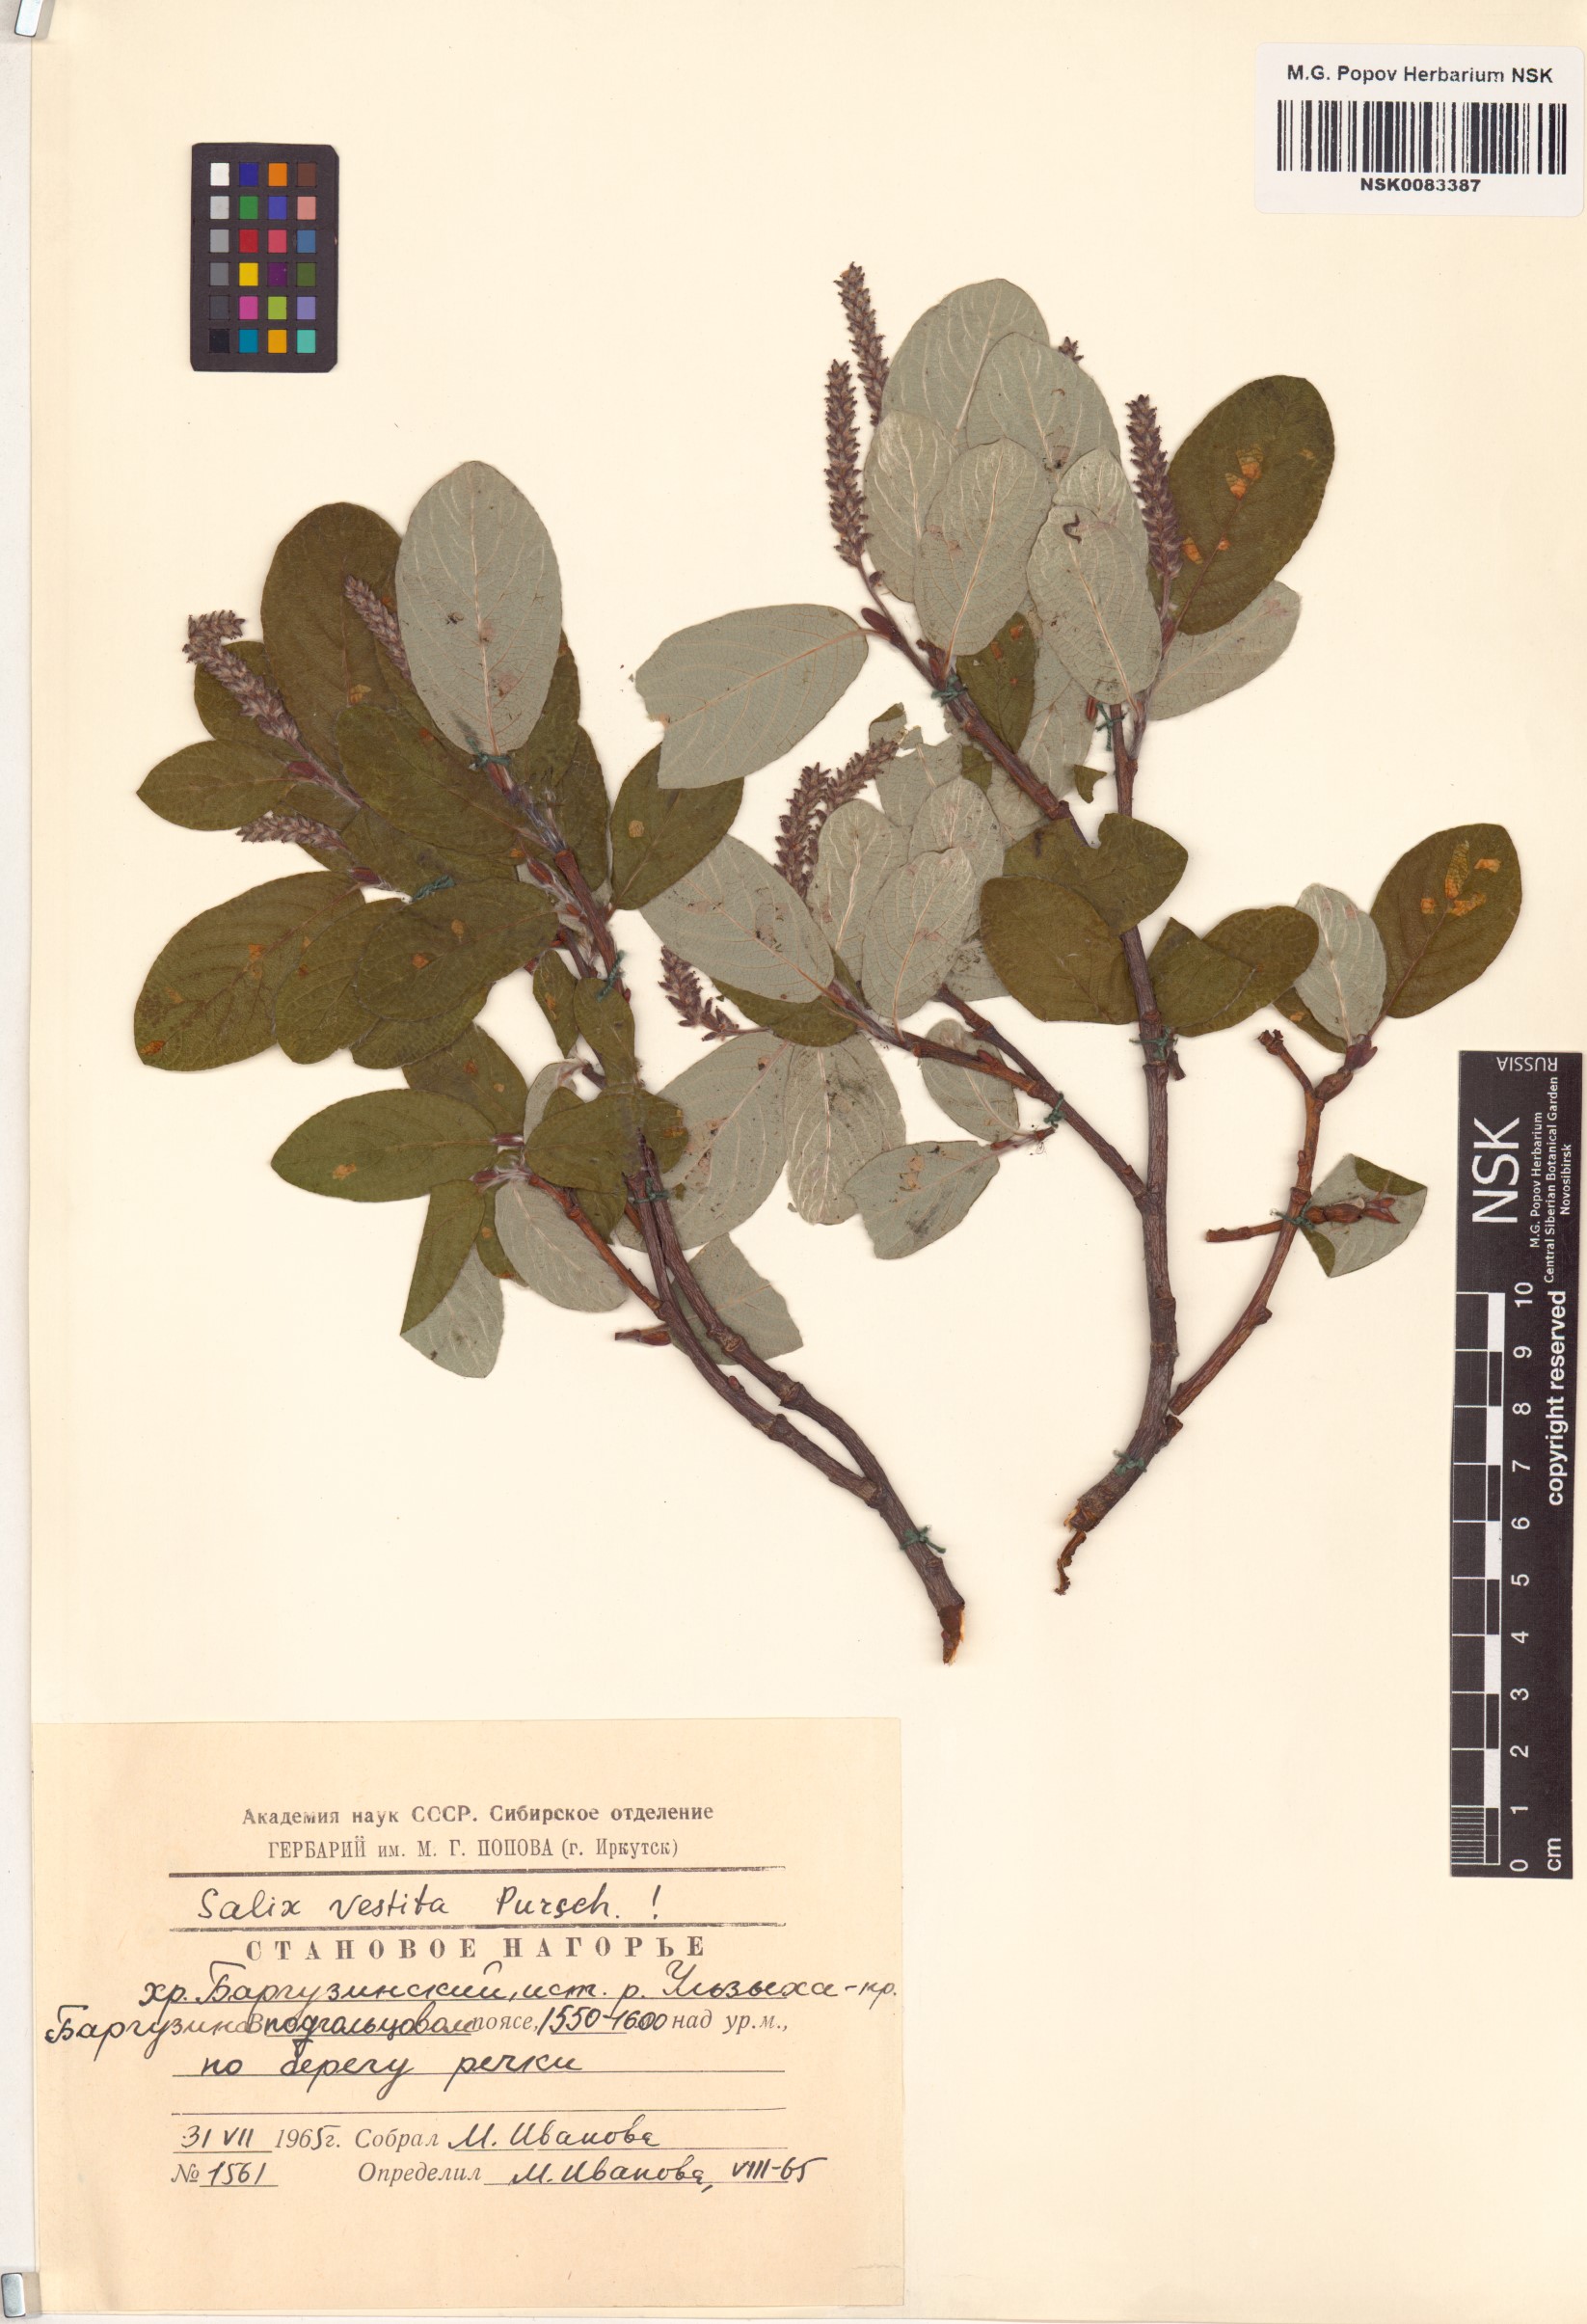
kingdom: Plantae
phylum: Tracheophyta
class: Magnoliopsida
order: Malpighiales
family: Salicaceae
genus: Salix
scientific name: Salix vestita
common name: Hairy willow
